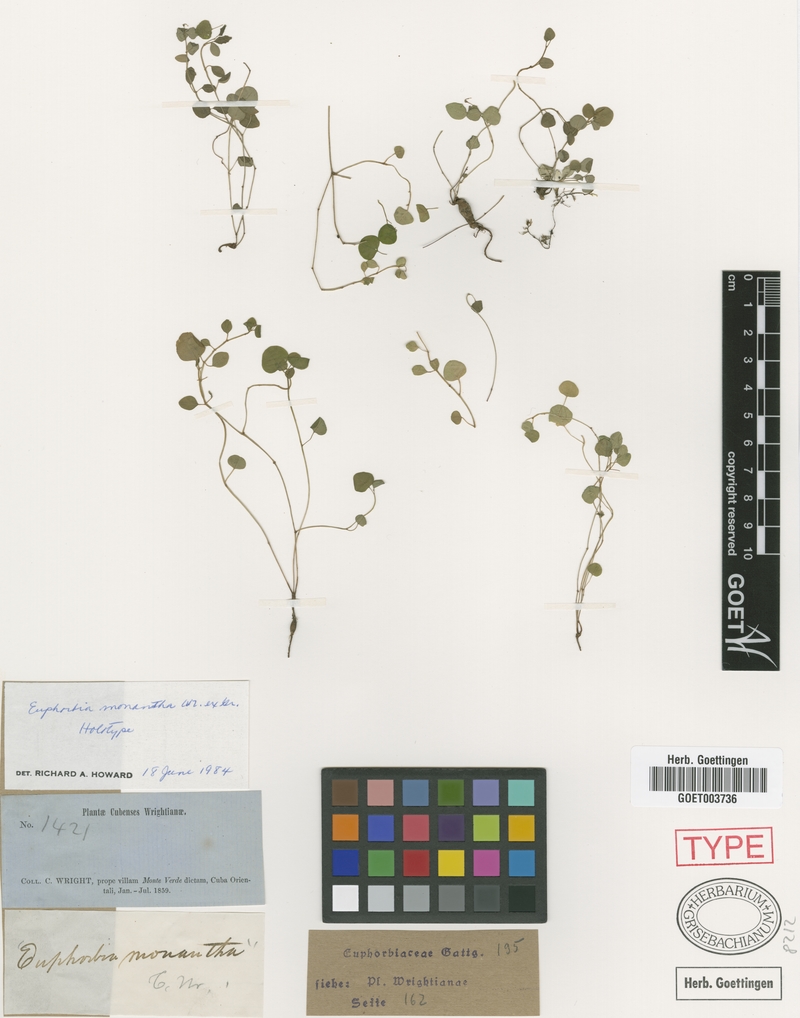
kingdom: Plantae
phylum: Tracheophyta
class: Magnoliopsida
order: Malpighiales
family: Euphorbiaceae
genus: Euphorbia
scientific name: Euphorbia monantha
